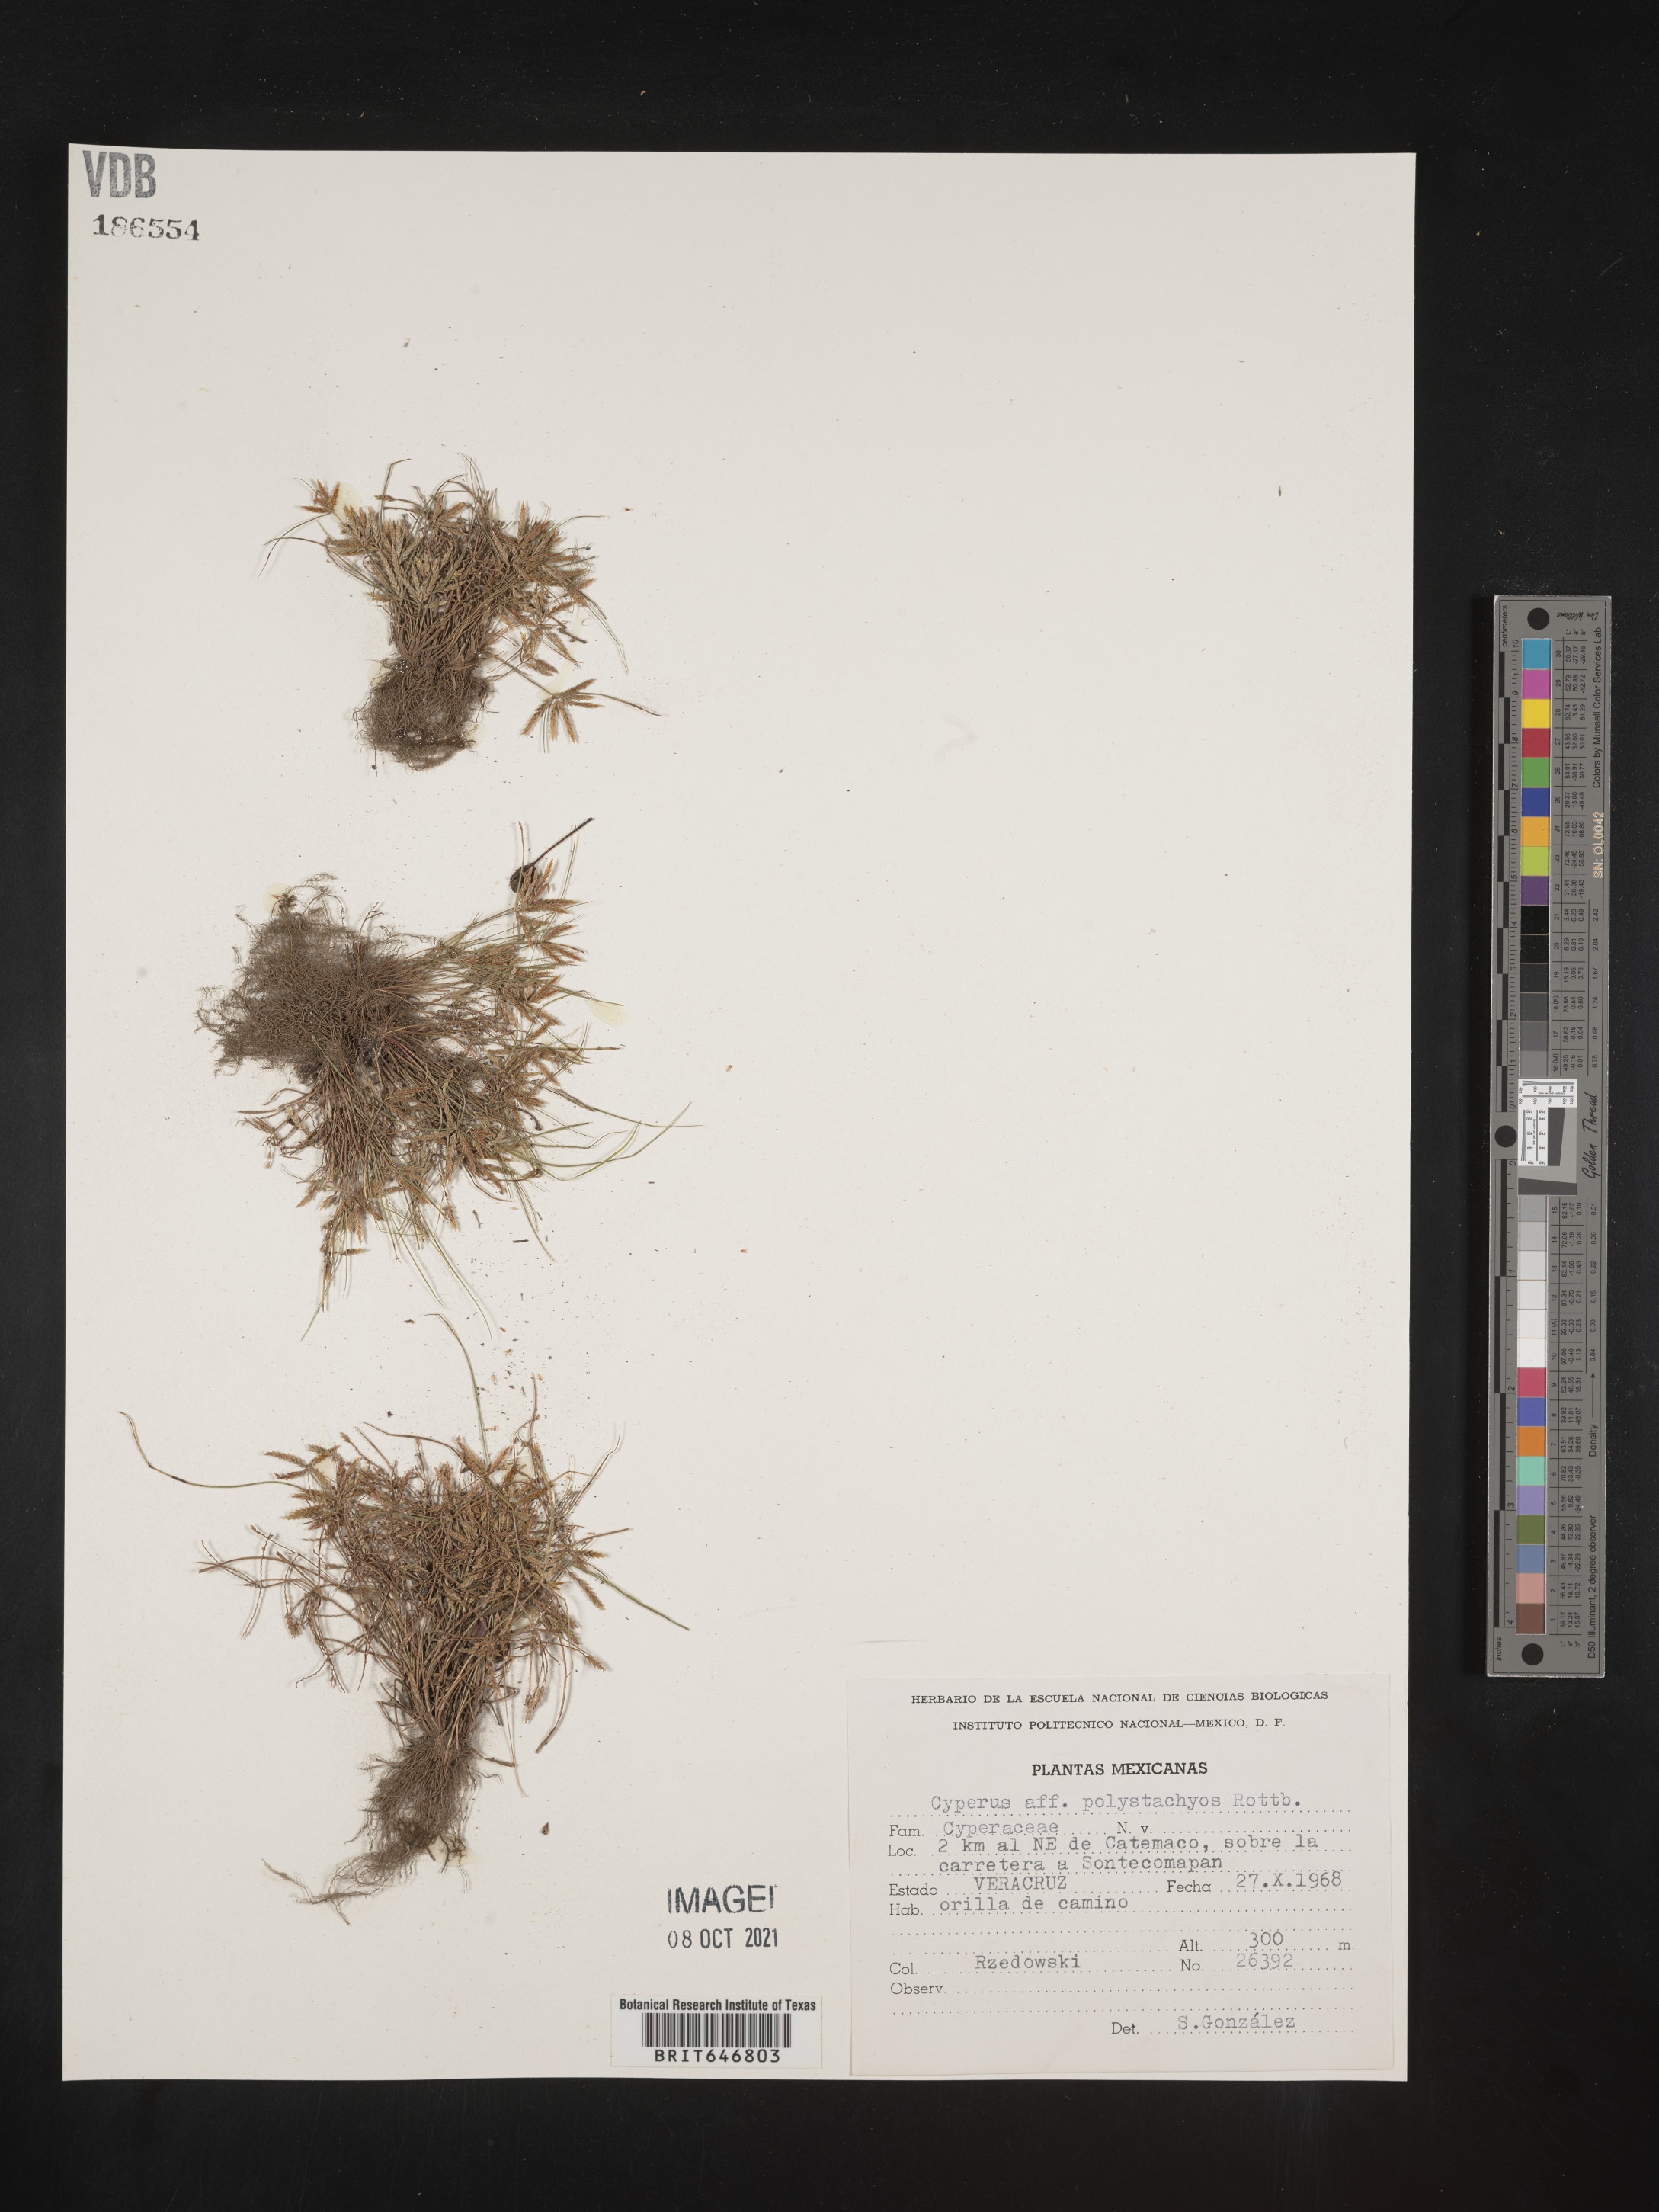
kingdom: Plantae
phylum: Tracheophyta
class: Liliopsida
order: Poales
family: Cyperaceae
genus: Cyperus
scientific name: Cyperus
